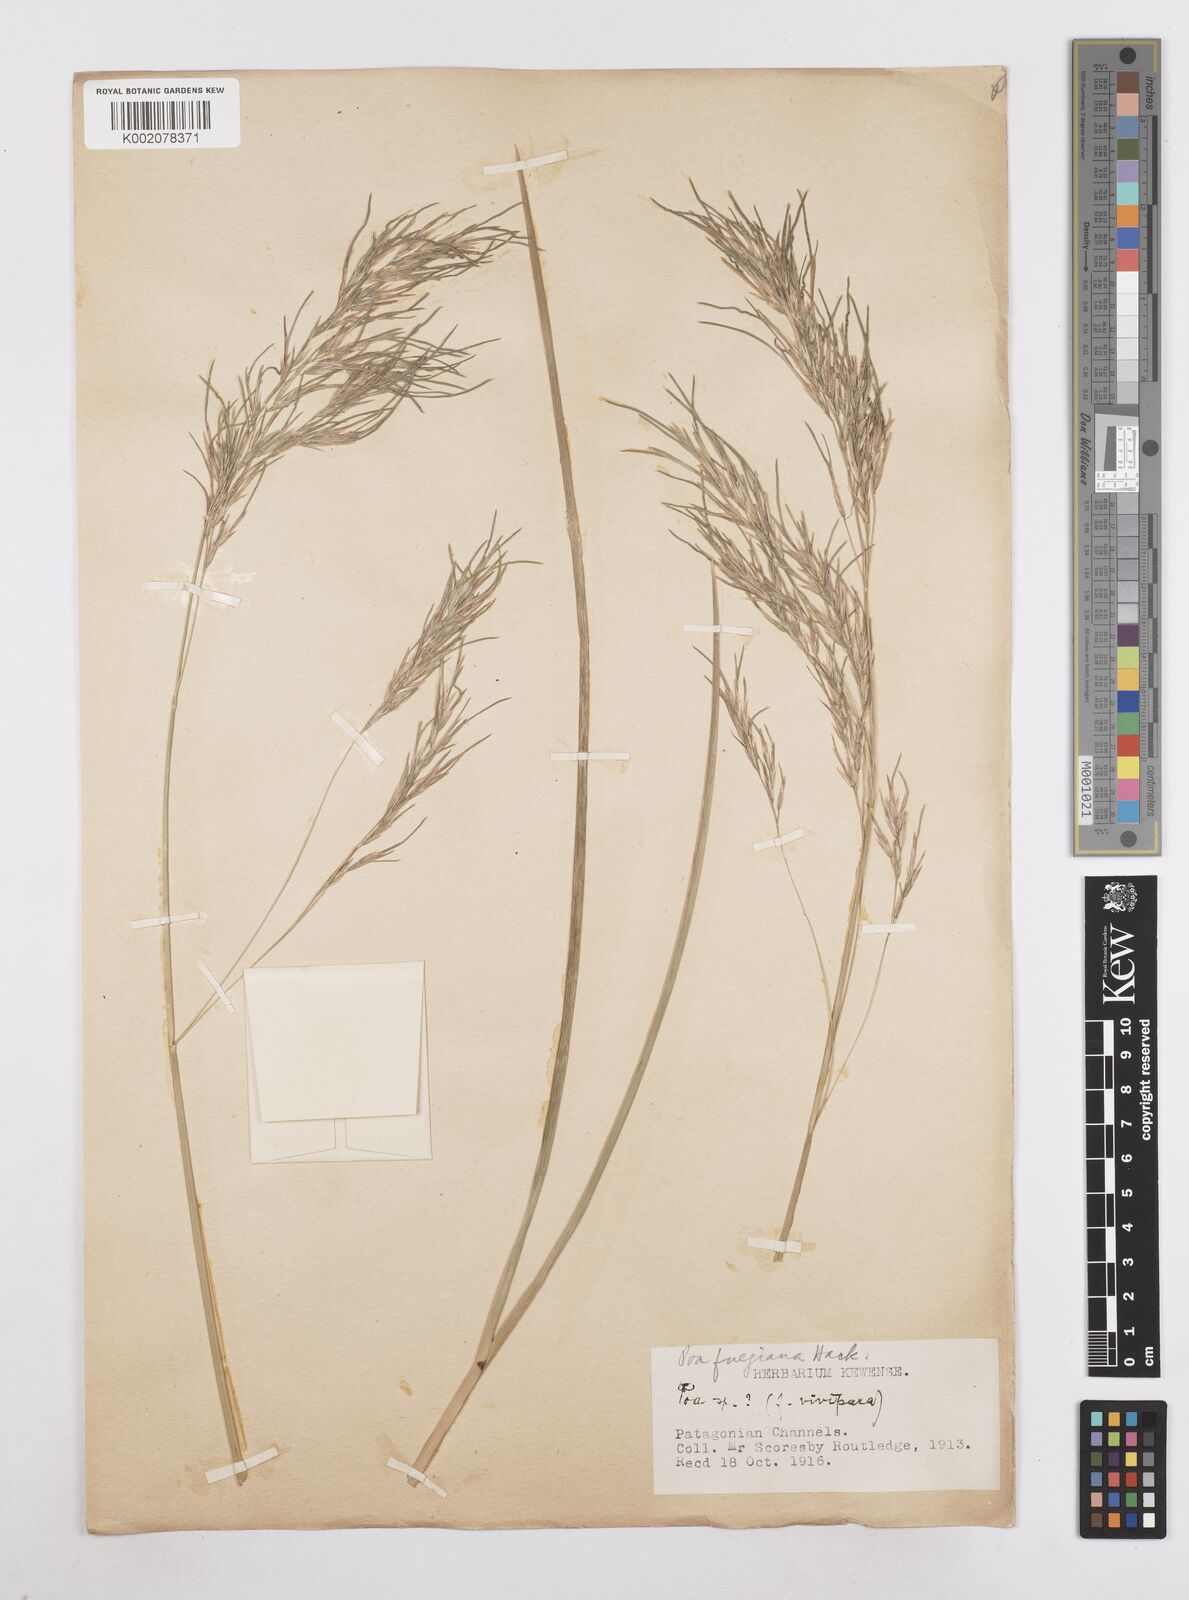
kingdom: Plantae
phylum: Tracheophyta
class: Liliopsida
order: Poales
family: Poaceae
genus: Poa
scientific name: Poa alopecurus
